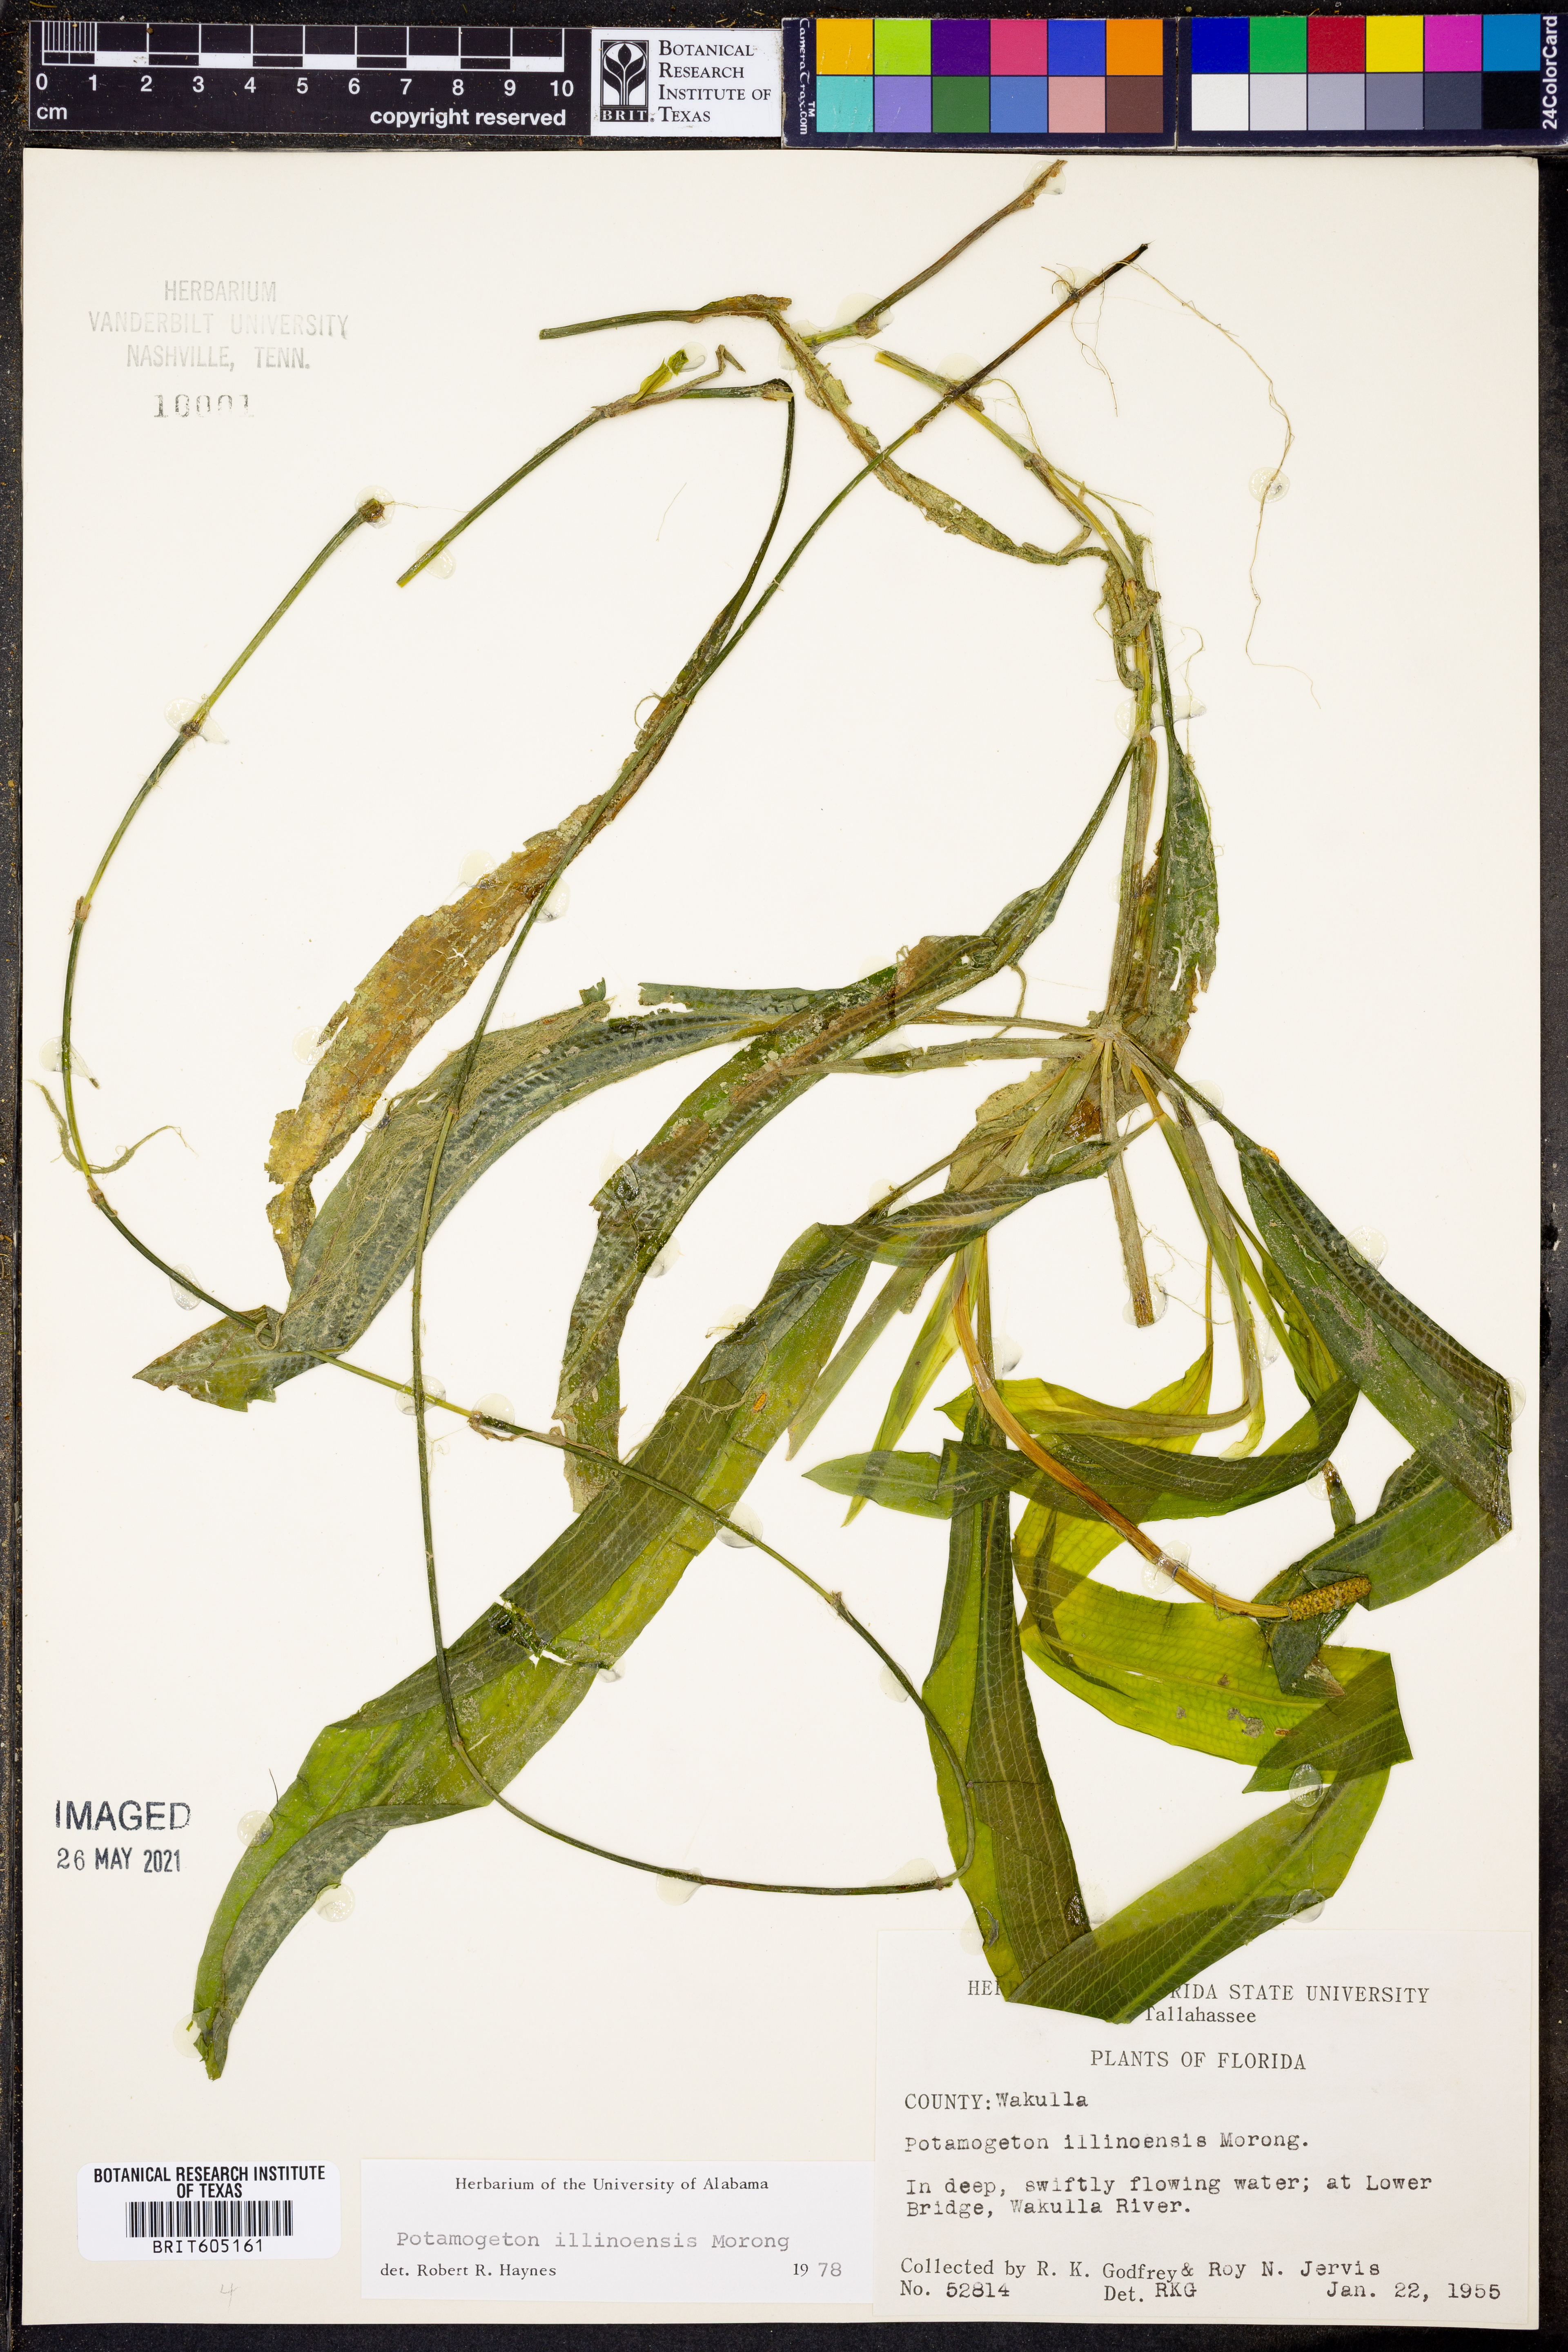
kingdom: Plantae
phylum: Tracheophyta
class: Liliopsida
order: Alismatales
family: Potamogetonaceae
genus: Potamogeton
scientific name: Potamogeton illinoensis
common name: Illinois pondweed
